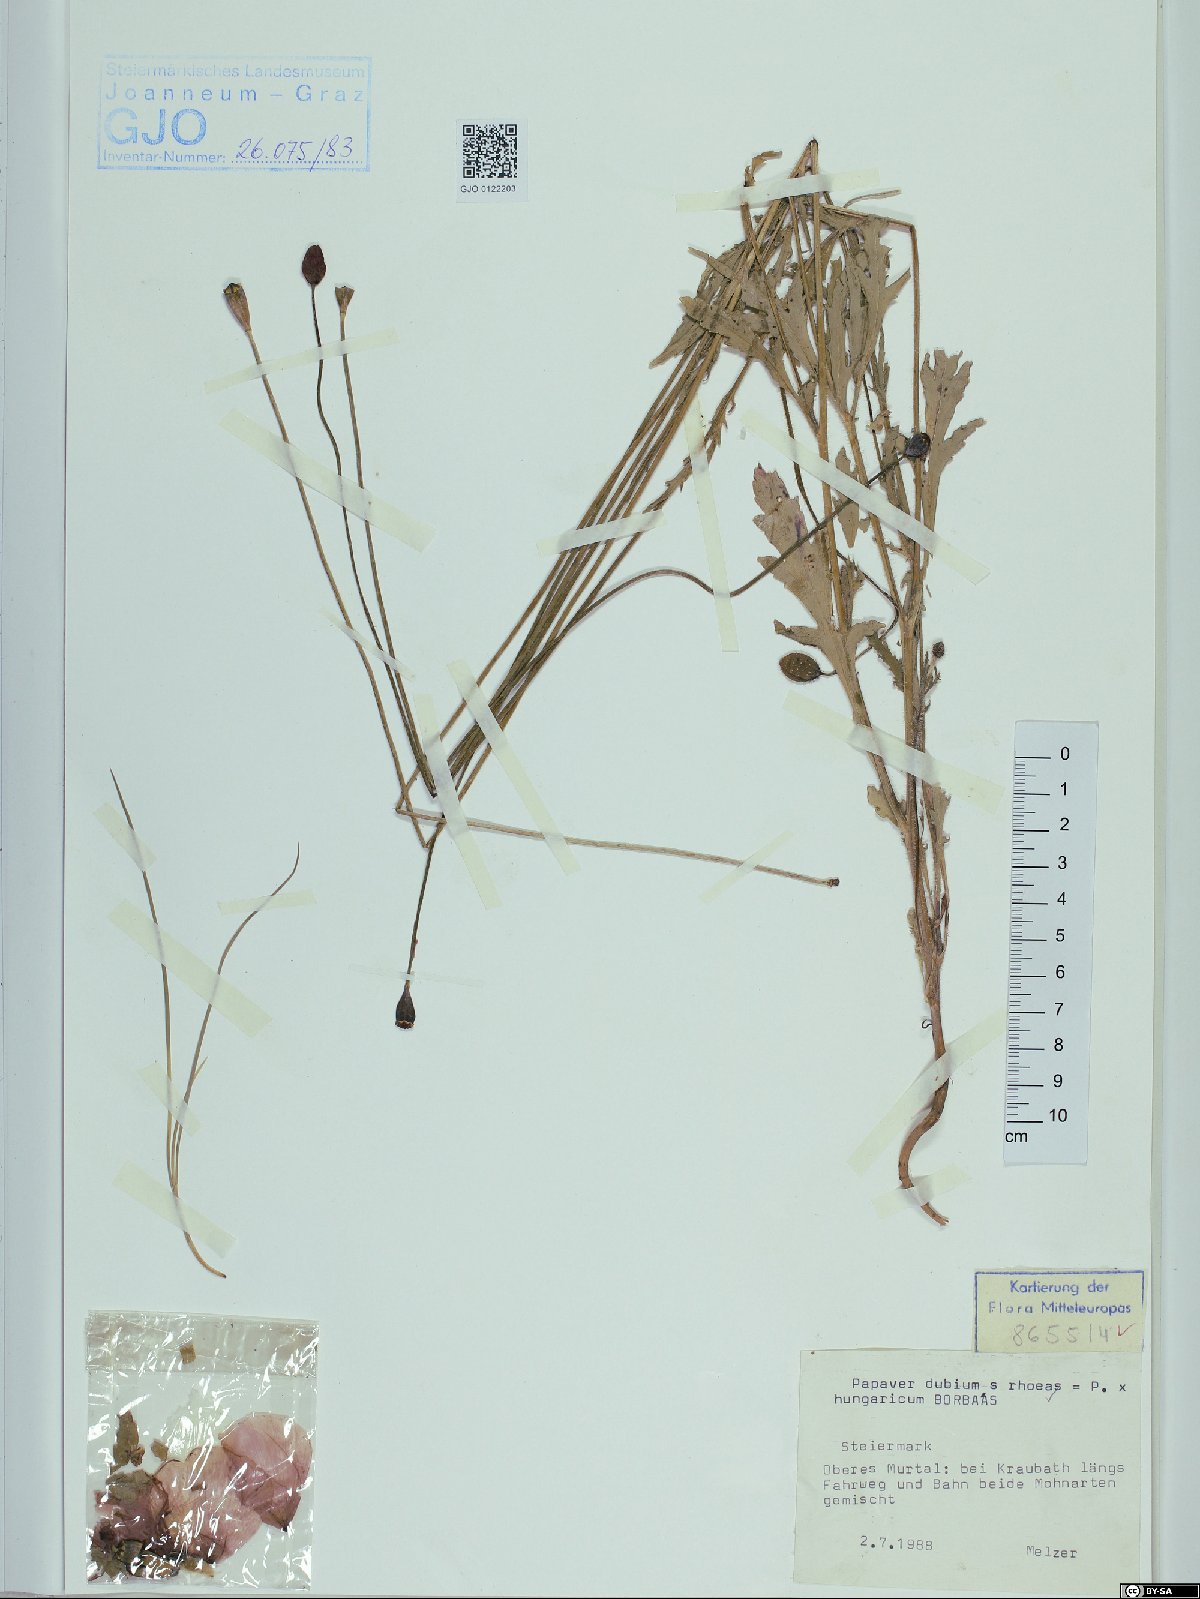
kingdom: Plantae
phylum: Tracheophyta
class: Magnoliopsida
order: Ranunculales
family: Papaveraceae
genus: Papaver
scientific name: Papaver strigosum
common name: Poppy
